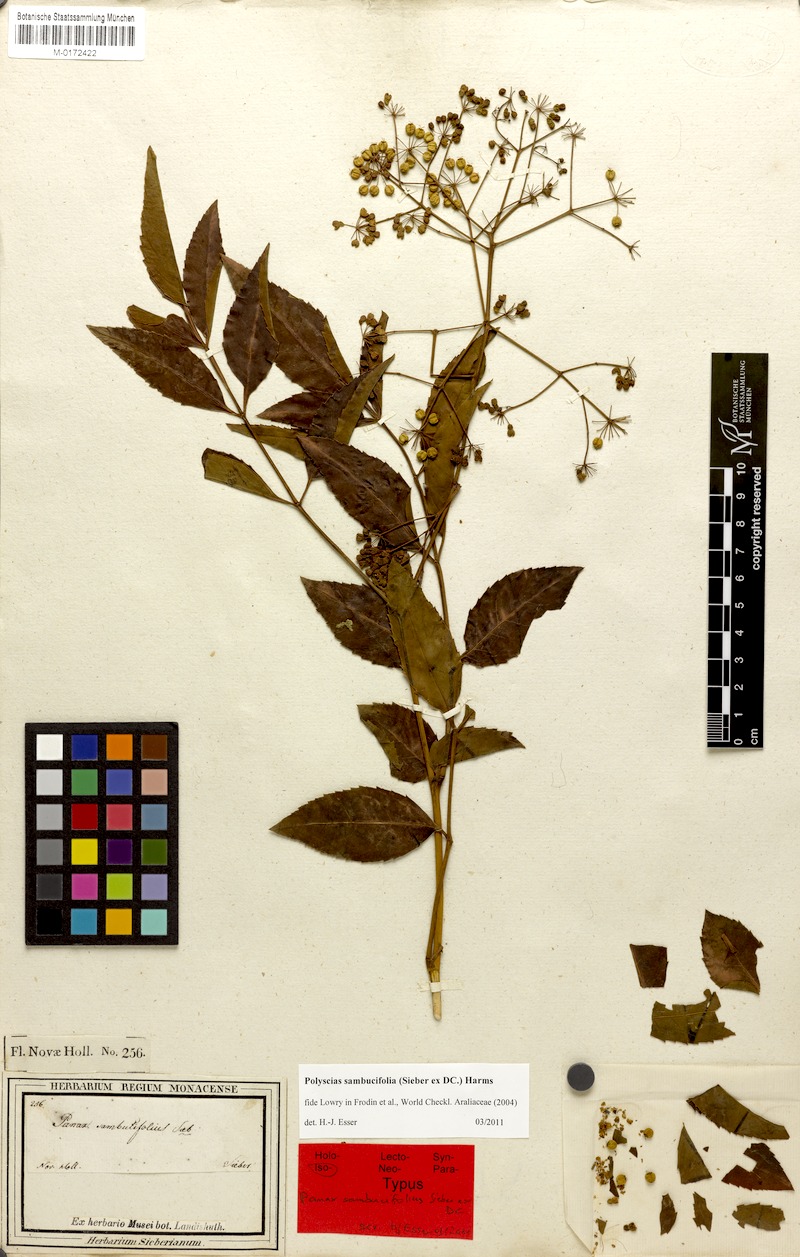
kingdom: Plantae
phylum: Tracheophyta
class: Magnoliopsida
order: Apiales
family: Araliaceae
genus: Polyscias
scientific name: Polyscias sambucifolia
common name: Elderberry-ash
